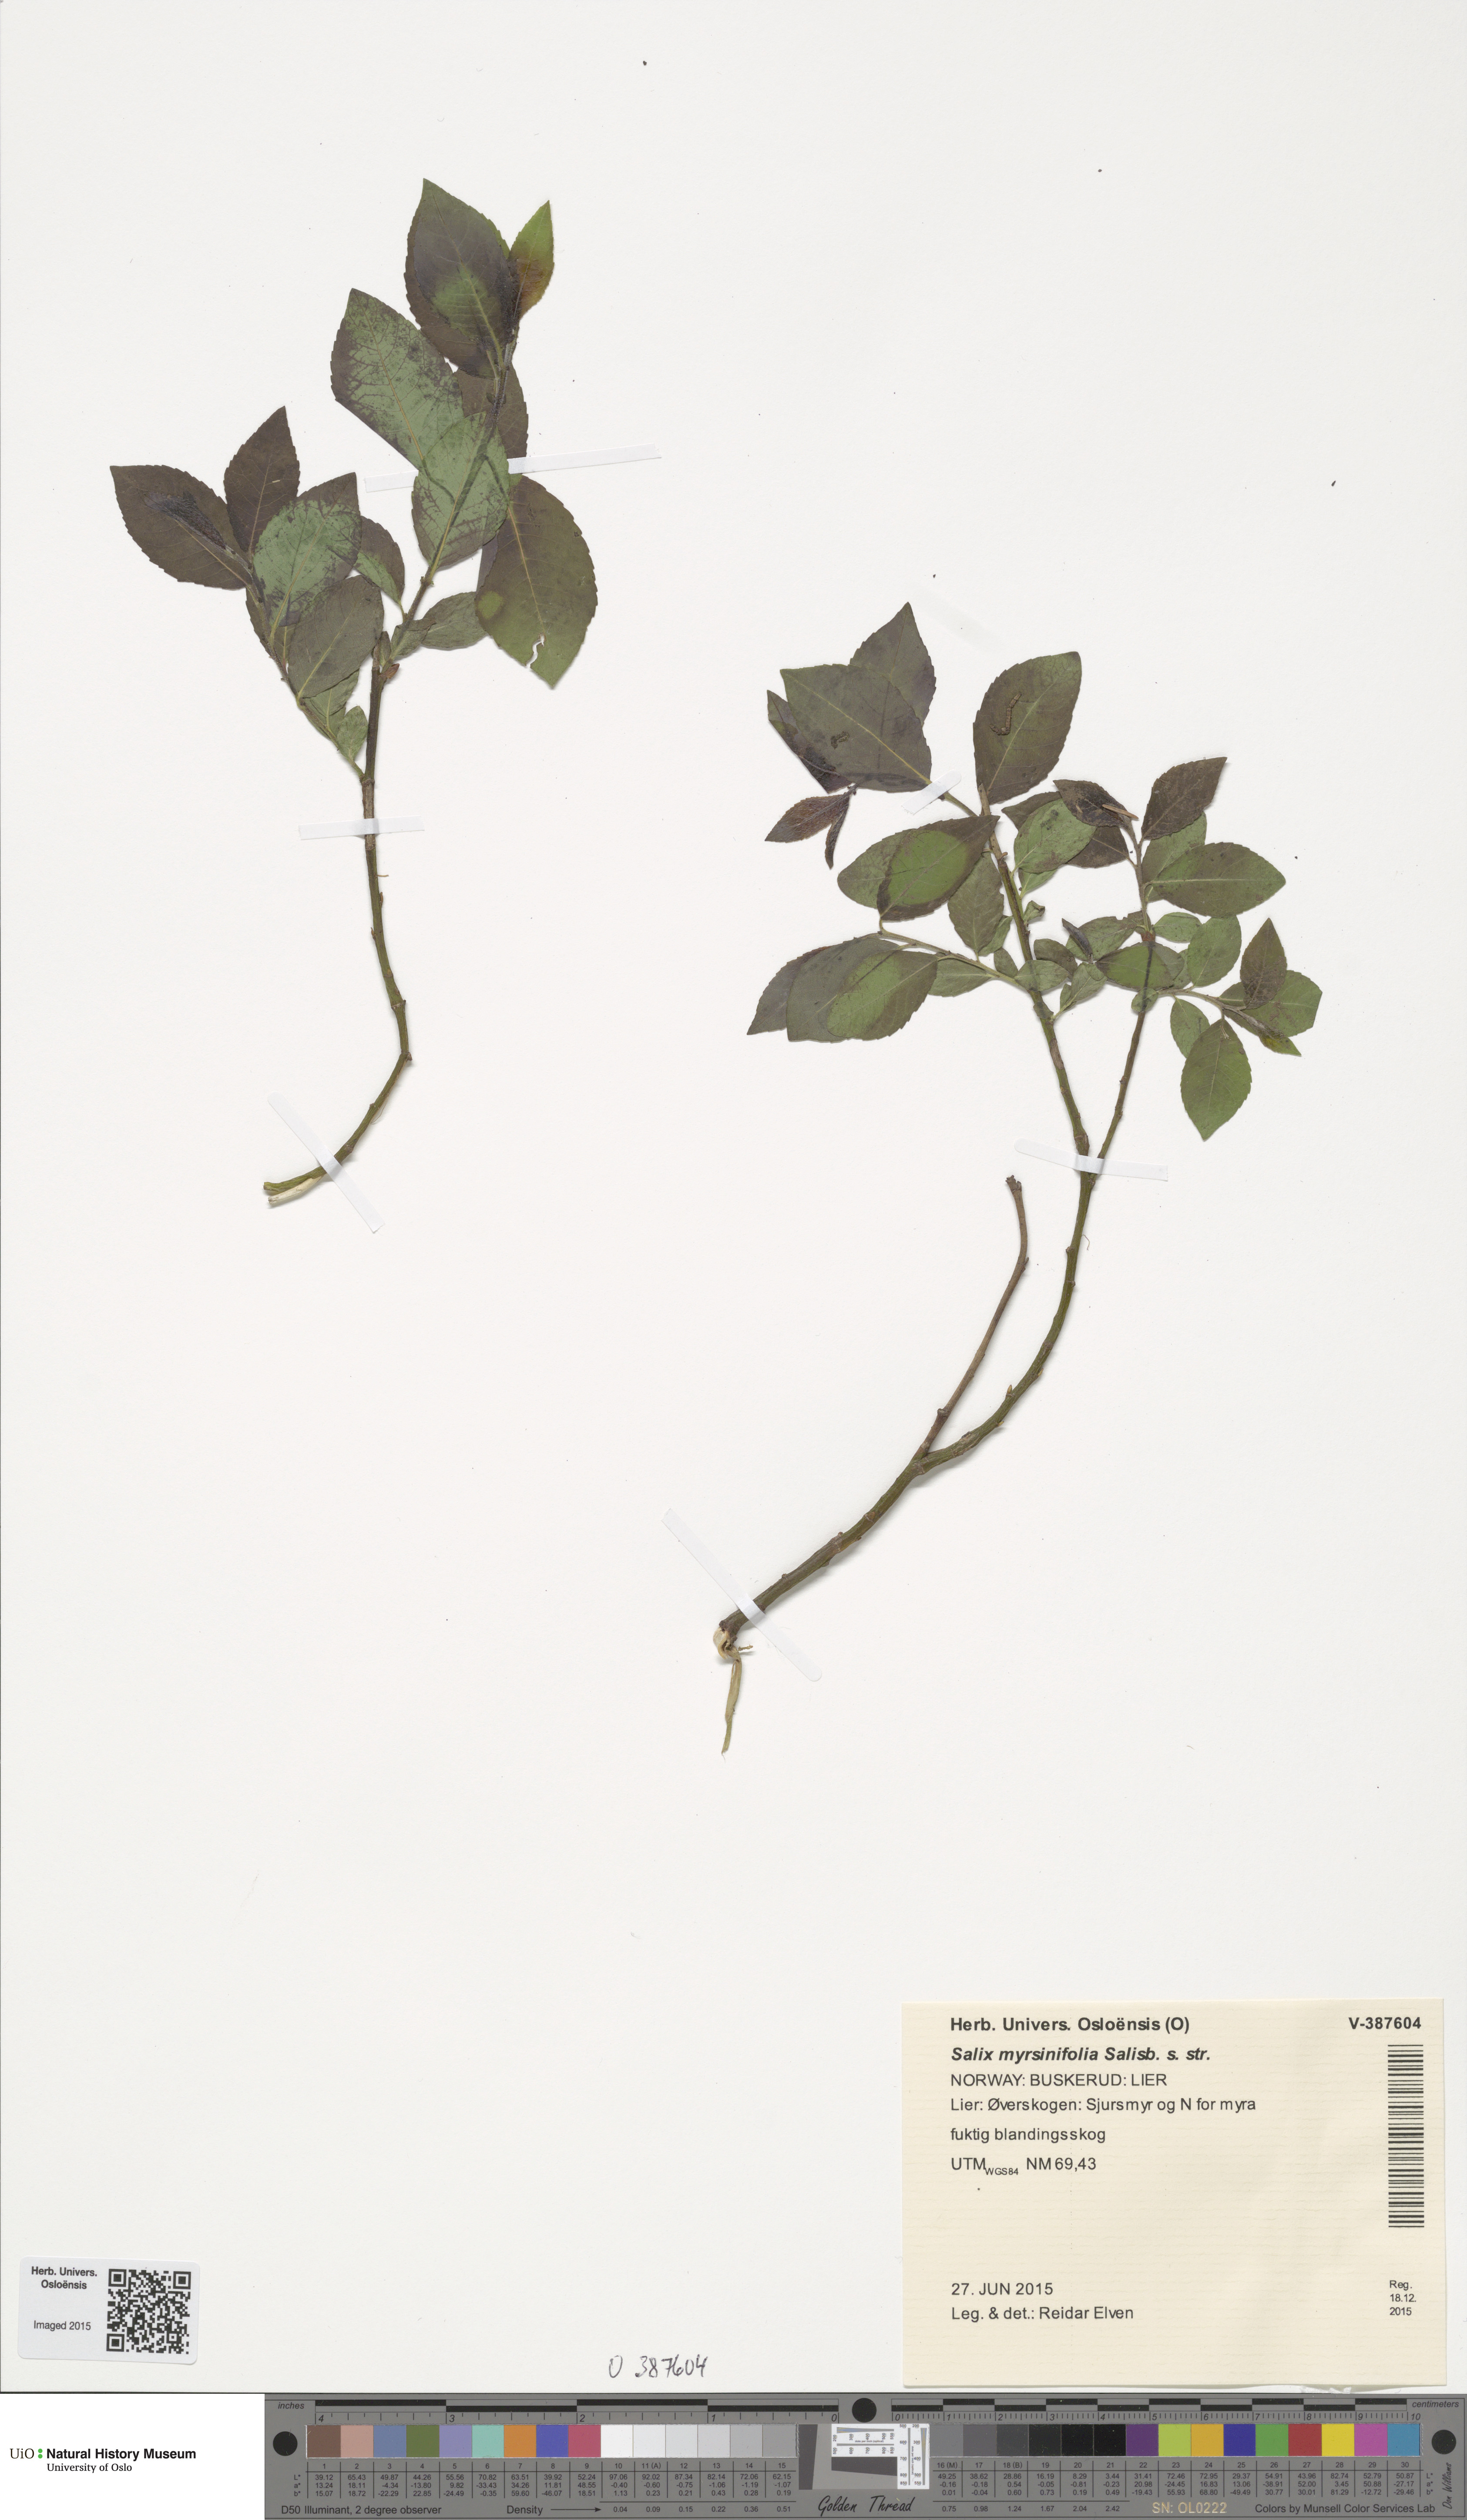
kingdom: Plantae
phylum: Tracheophyta
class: Magnoliopsida
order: Malpighiales
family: Salicaceae
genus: Salix
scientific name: Salix myrsinifolia
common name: Dark-leaved willow
